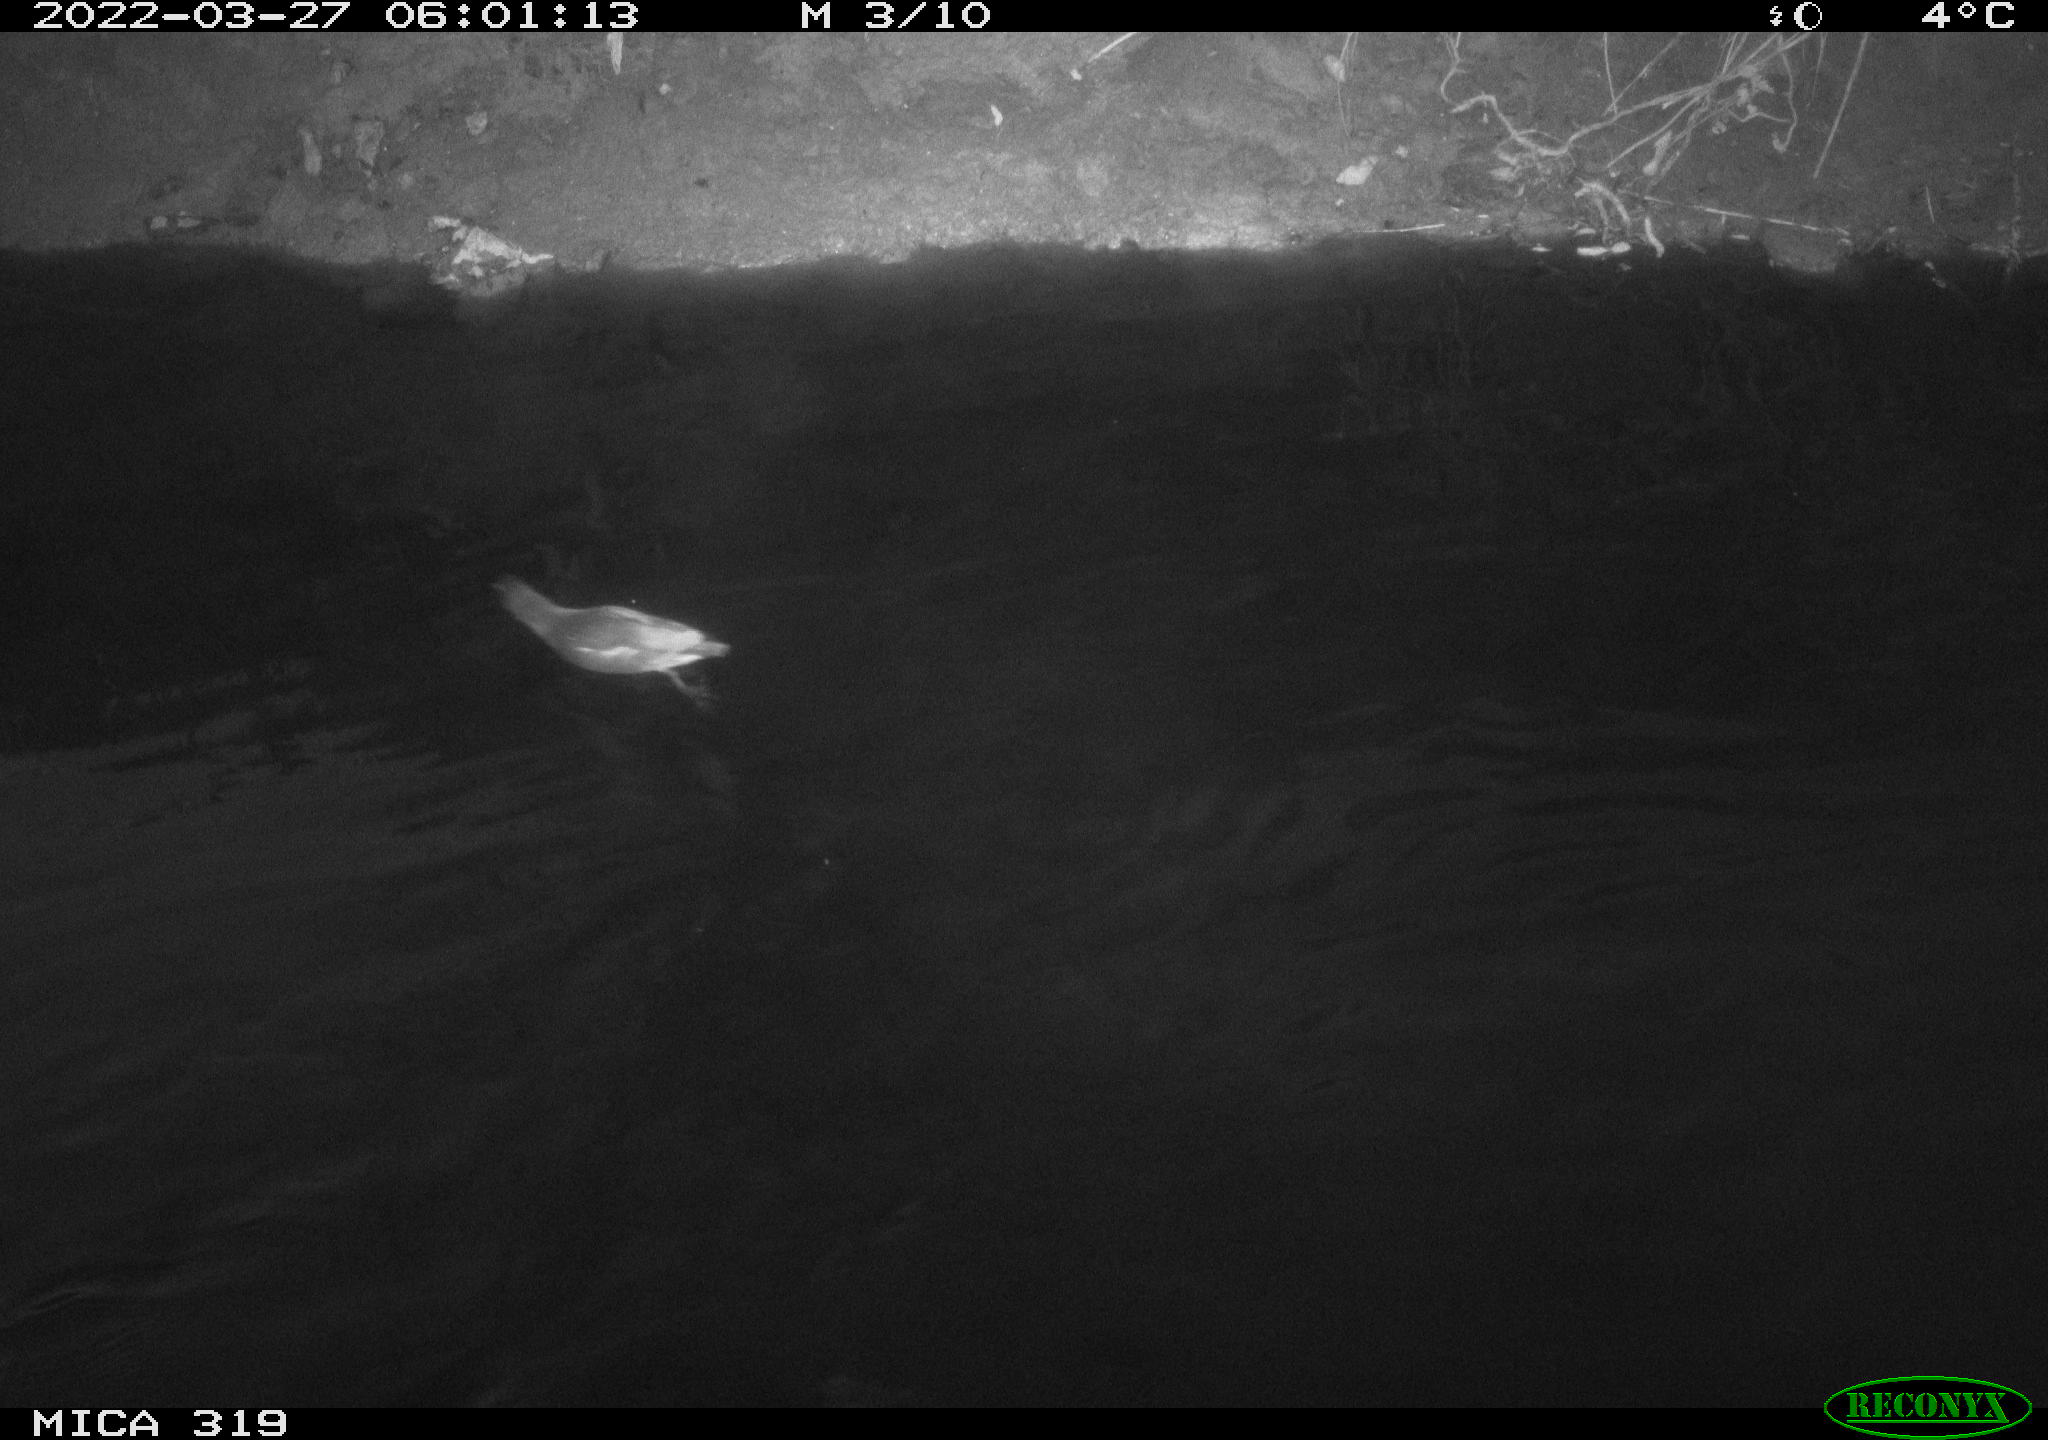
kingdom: Animalia
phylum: Chordata
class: Aves
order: Gruiformes
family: Rallidae
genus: Gallinula
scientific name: Gallinula chloropus
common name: Common moorhen
